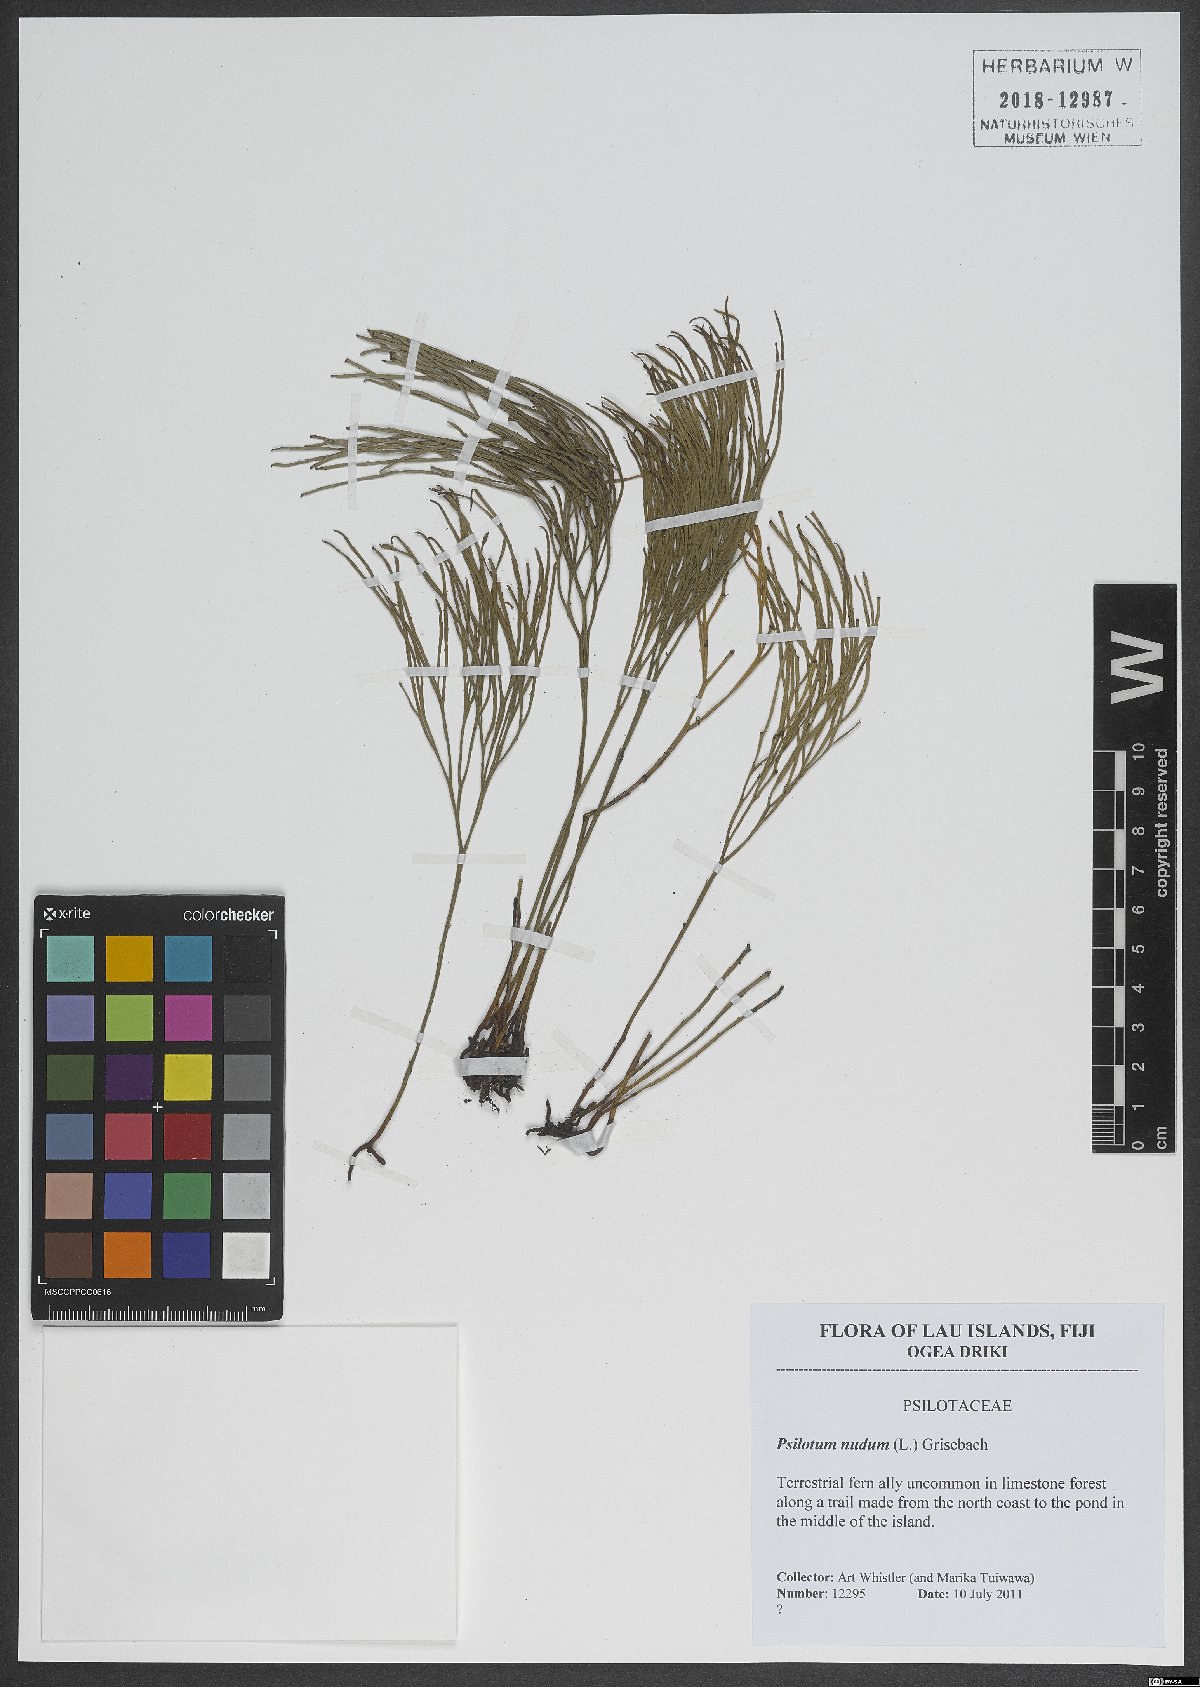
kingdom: Plantae
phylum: Tracheophyta
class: Polypodiopsida
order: Psilotales
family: Psilotaceae
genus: Psilotum
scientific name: Psilotum nudum
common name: Skeleton fork fern
